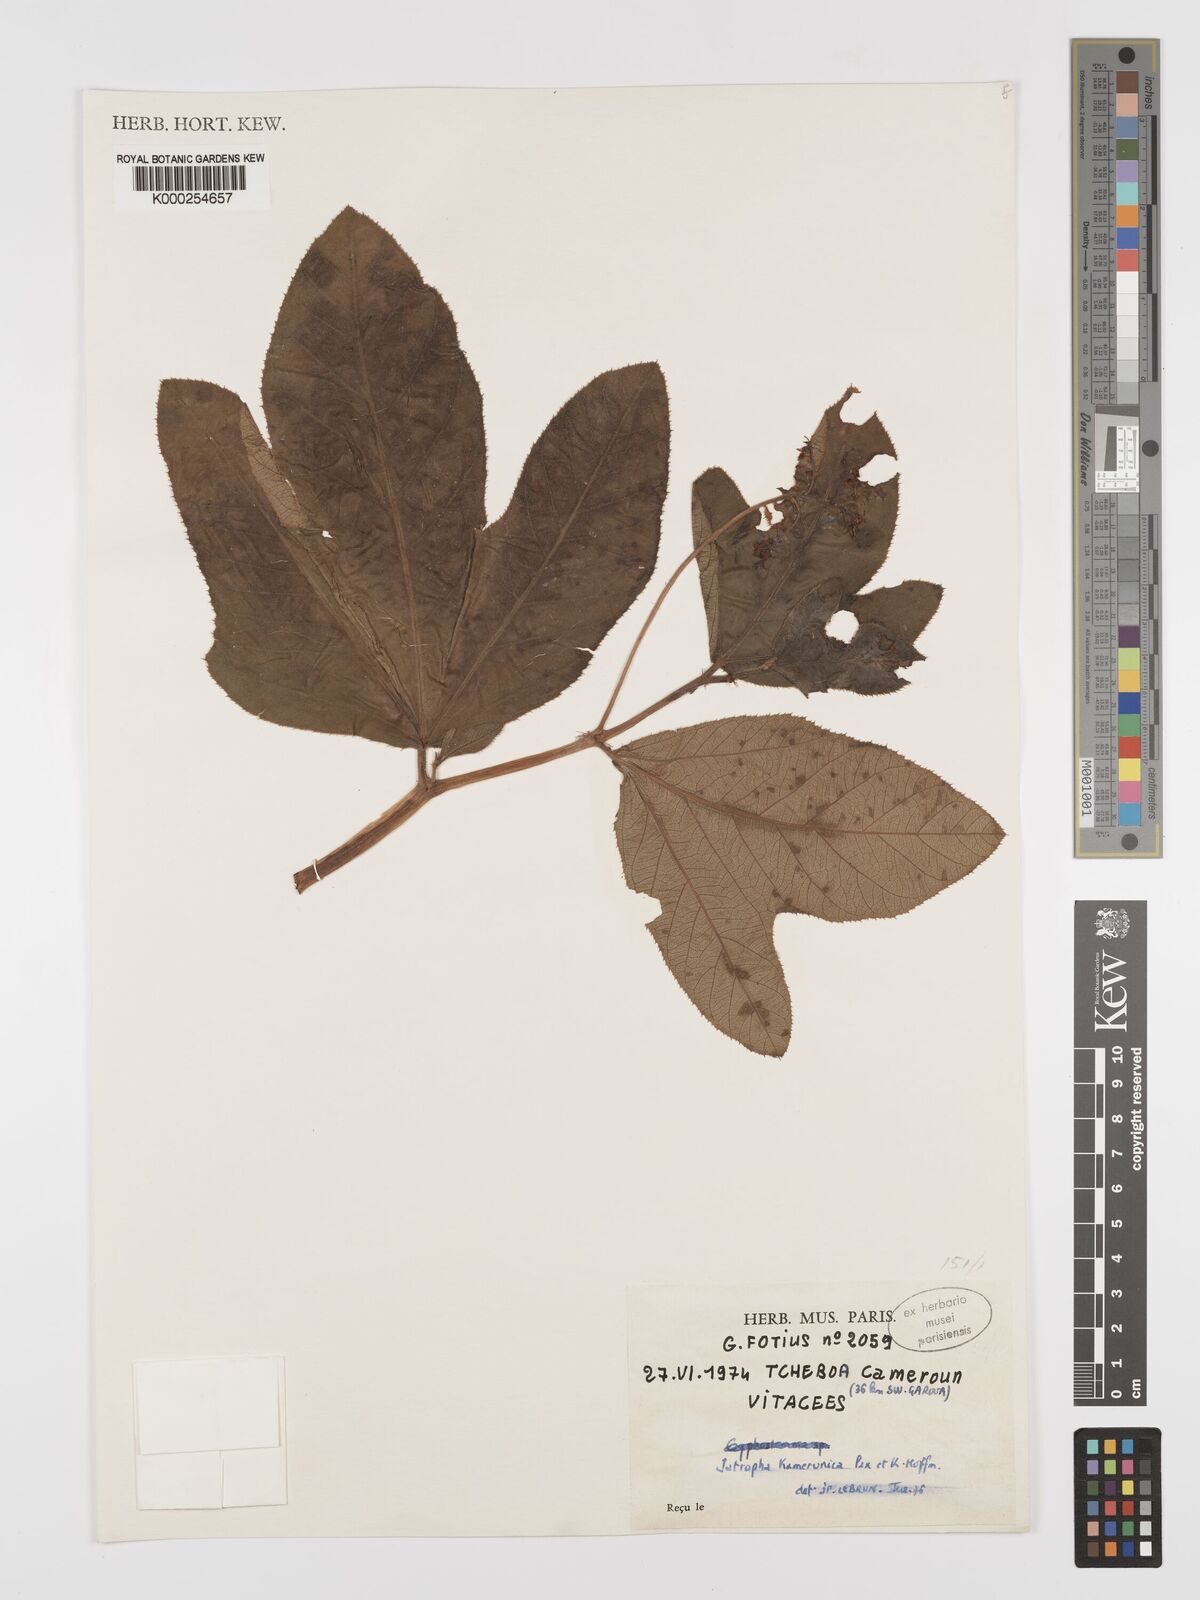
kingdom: Plantae
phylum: Tracheophyta
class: Magnoliopsida
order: Malpighiales
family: Euphorbiaceae
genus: Jatropha
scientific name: Jatropha kamerunica
